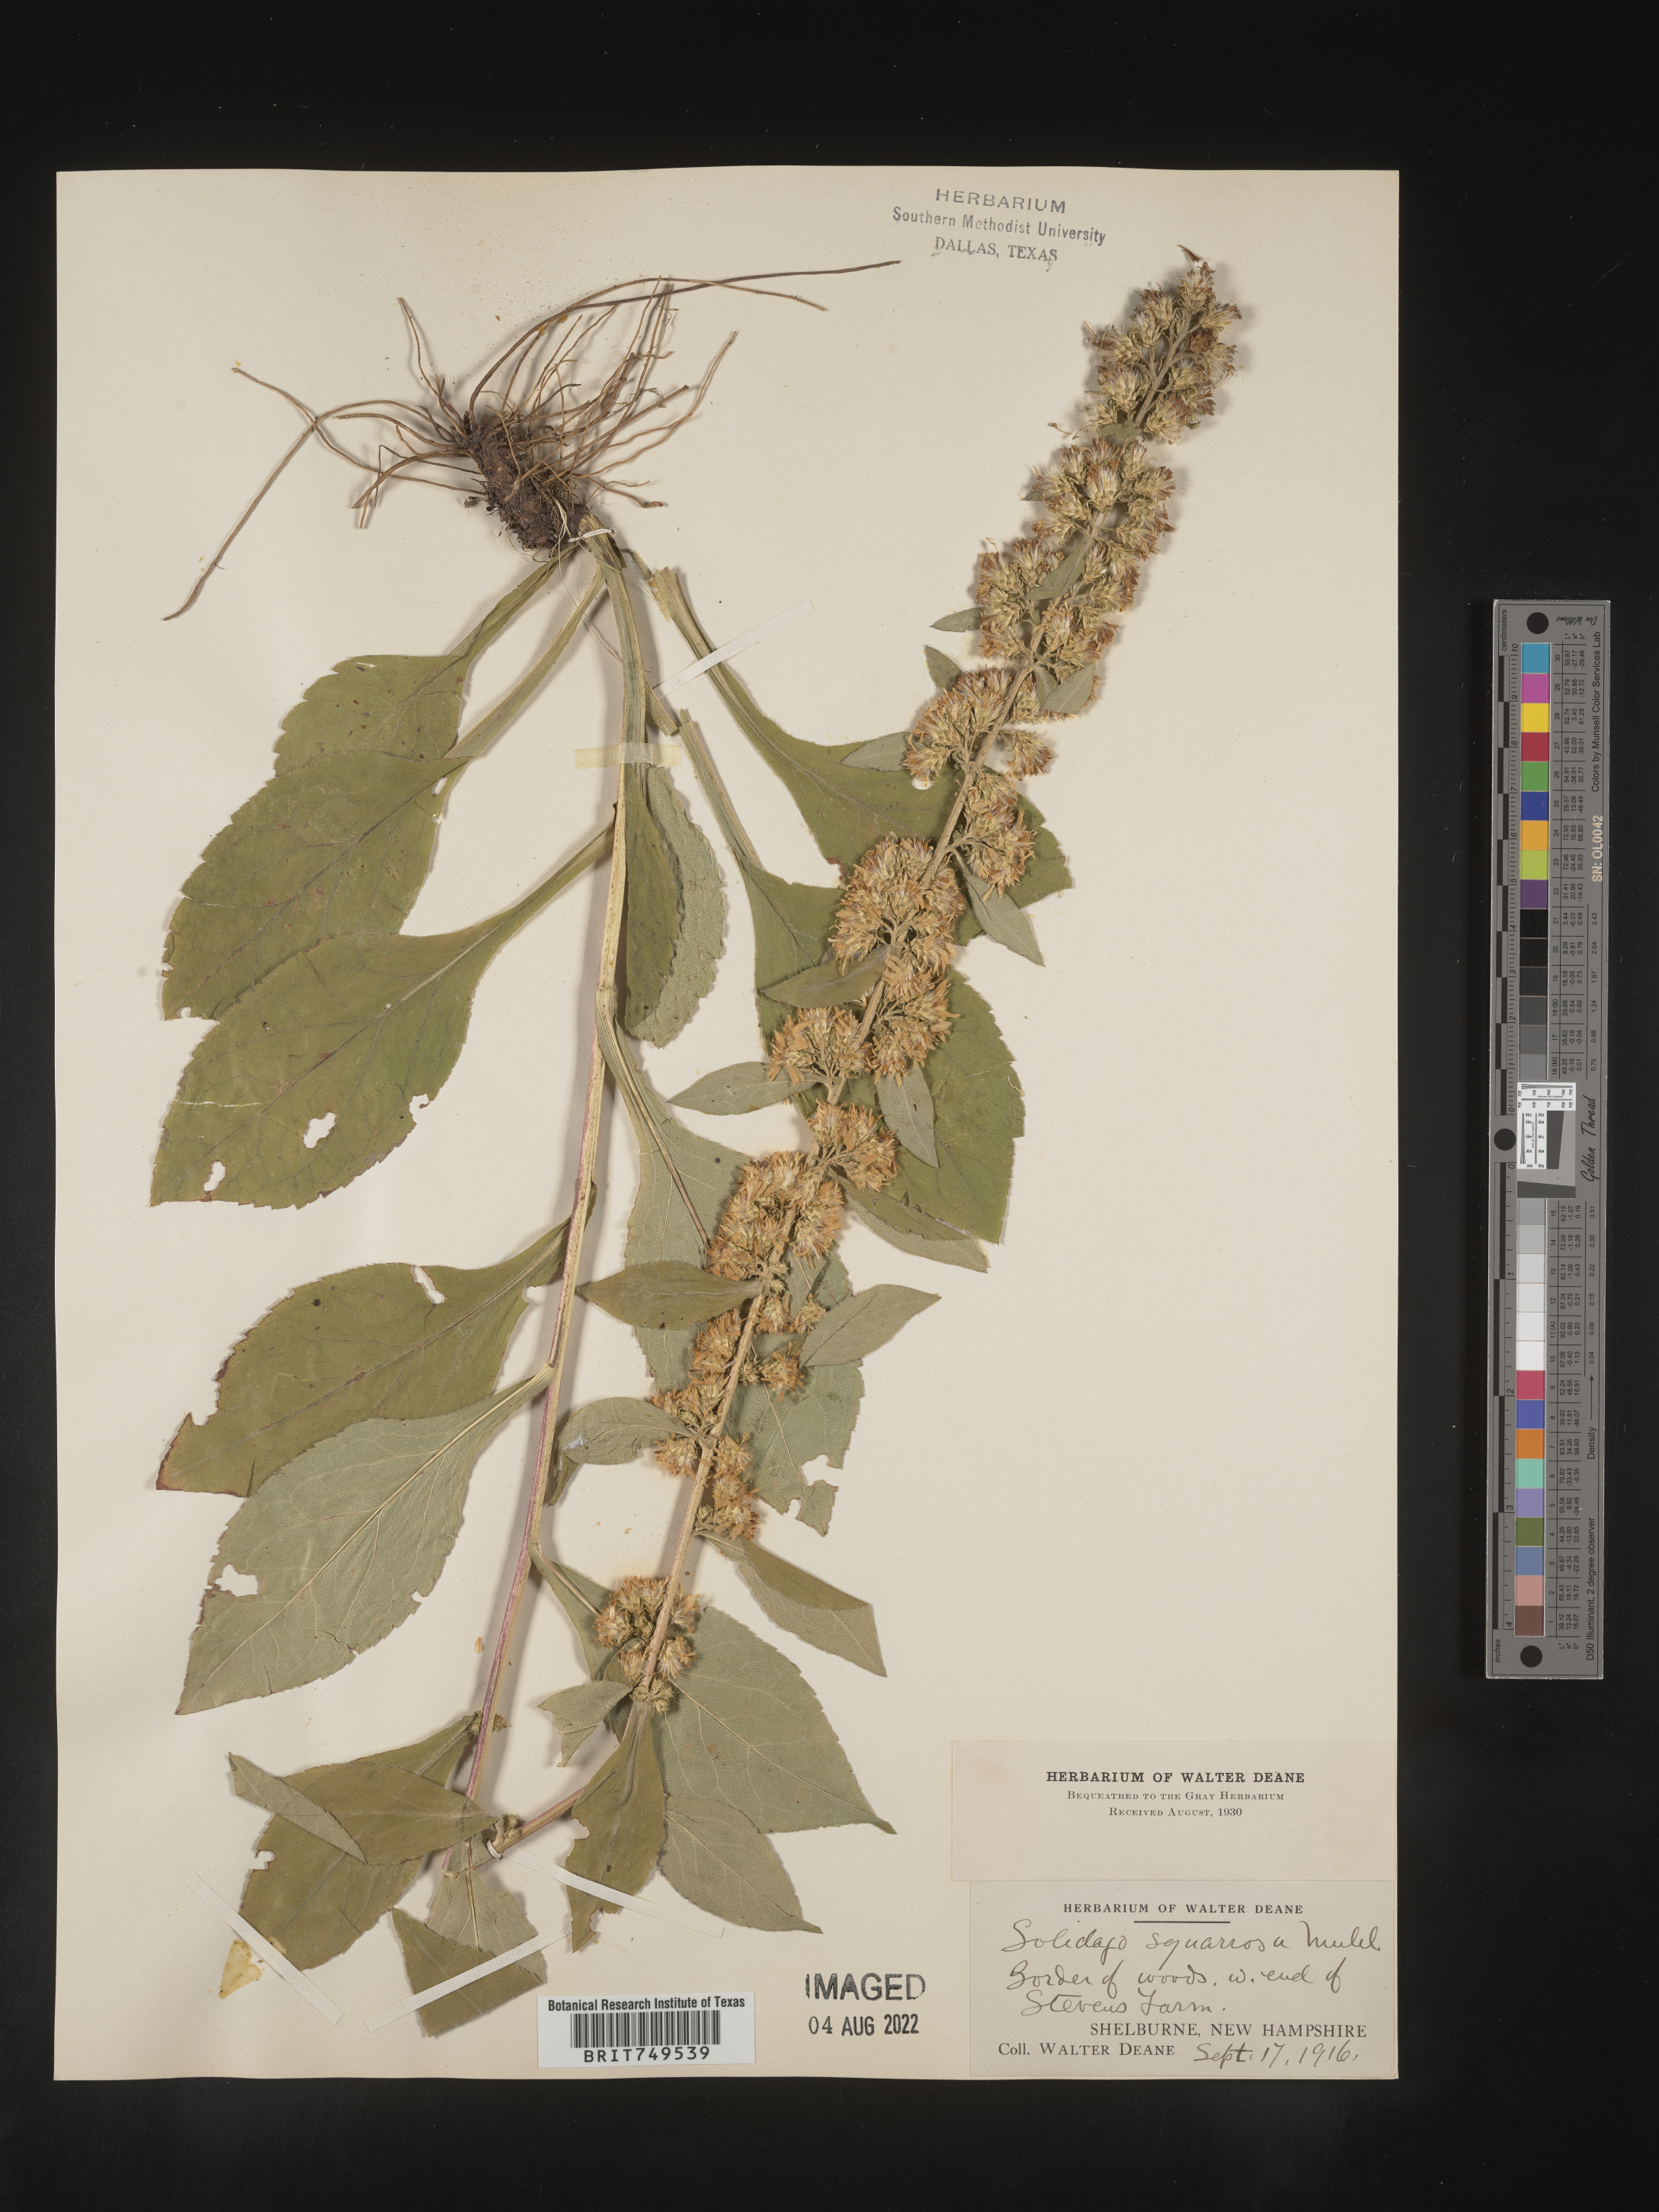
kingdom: Plantae
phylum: Tracheophyta
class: Magnoliopsida
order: Asterales
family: Asteraceae
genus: Solidago
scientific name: Solidago squarrosa
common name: Stout goldenrod
